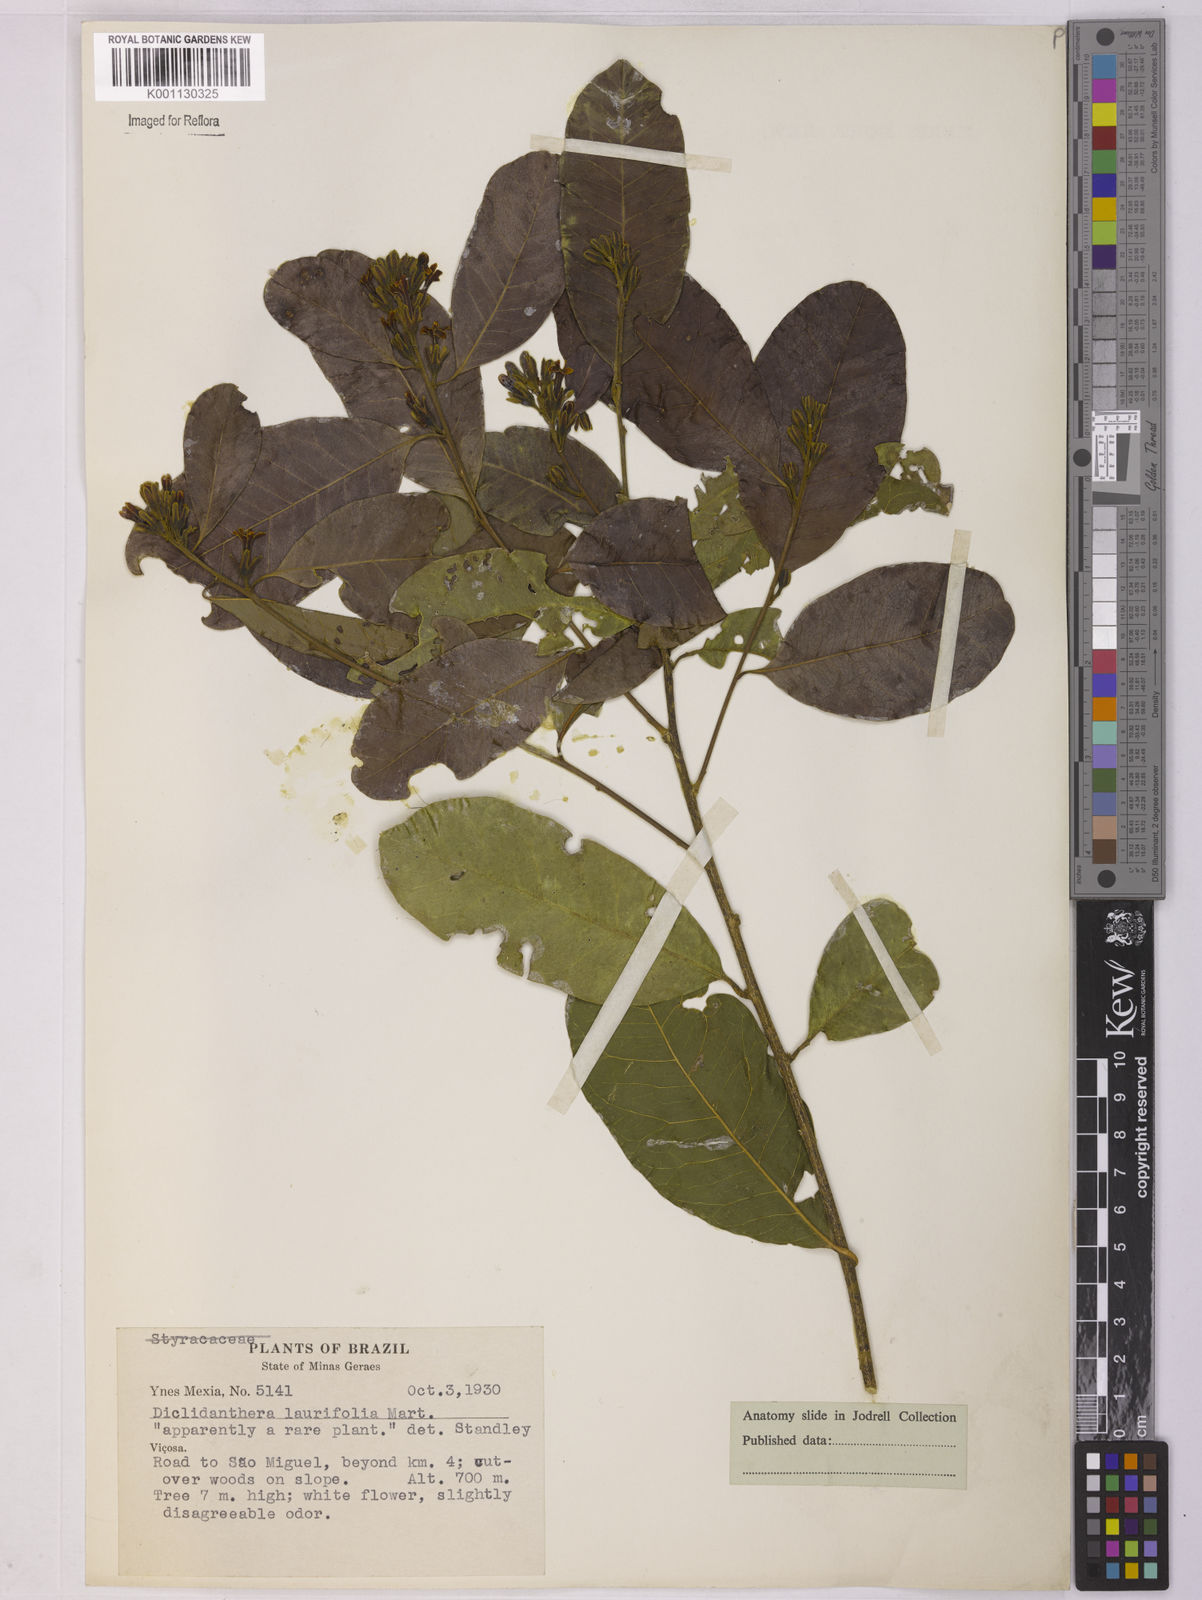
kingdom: Plantae
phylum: Tracheophyta
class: Magnoliopsida
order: Fabales
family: Polygalaceae
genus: Diclidanthera
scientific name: Diclidanthera laurifolia
